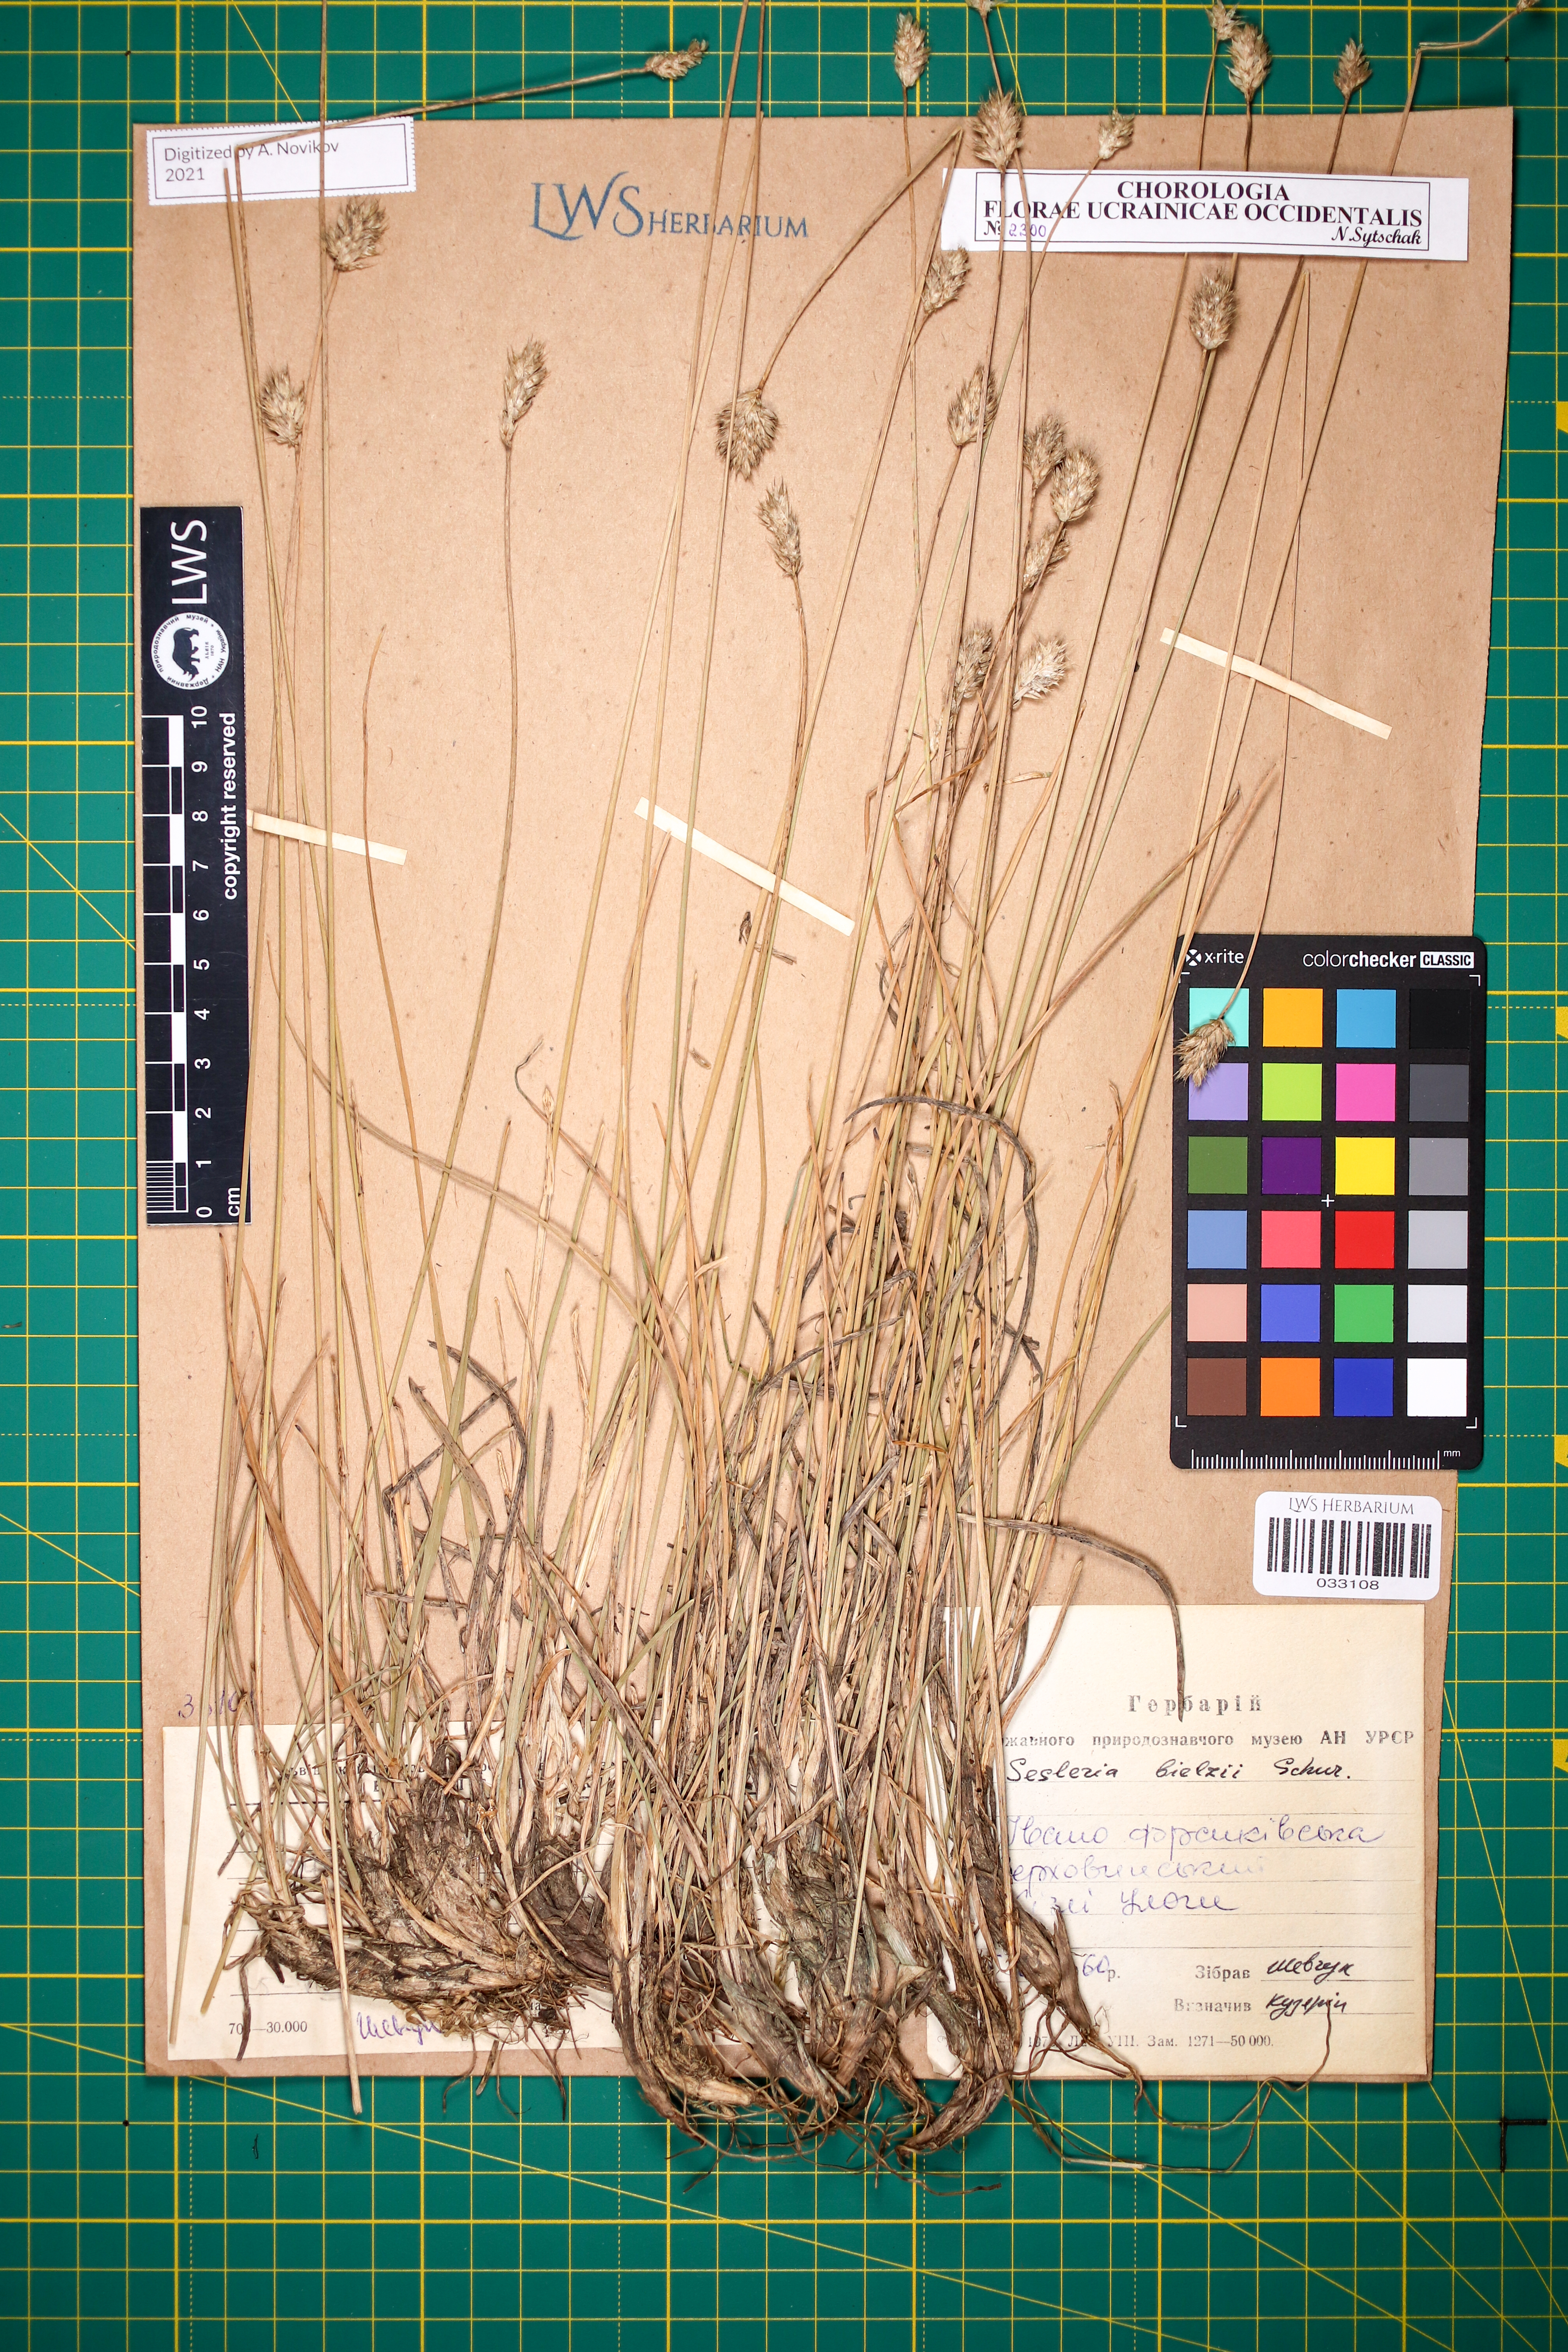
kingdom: Plantae
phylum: Tracheophyta
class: Liliopsida
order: Poales
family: Poaceae
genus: Sesleria
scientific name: Sesleria bielzii
